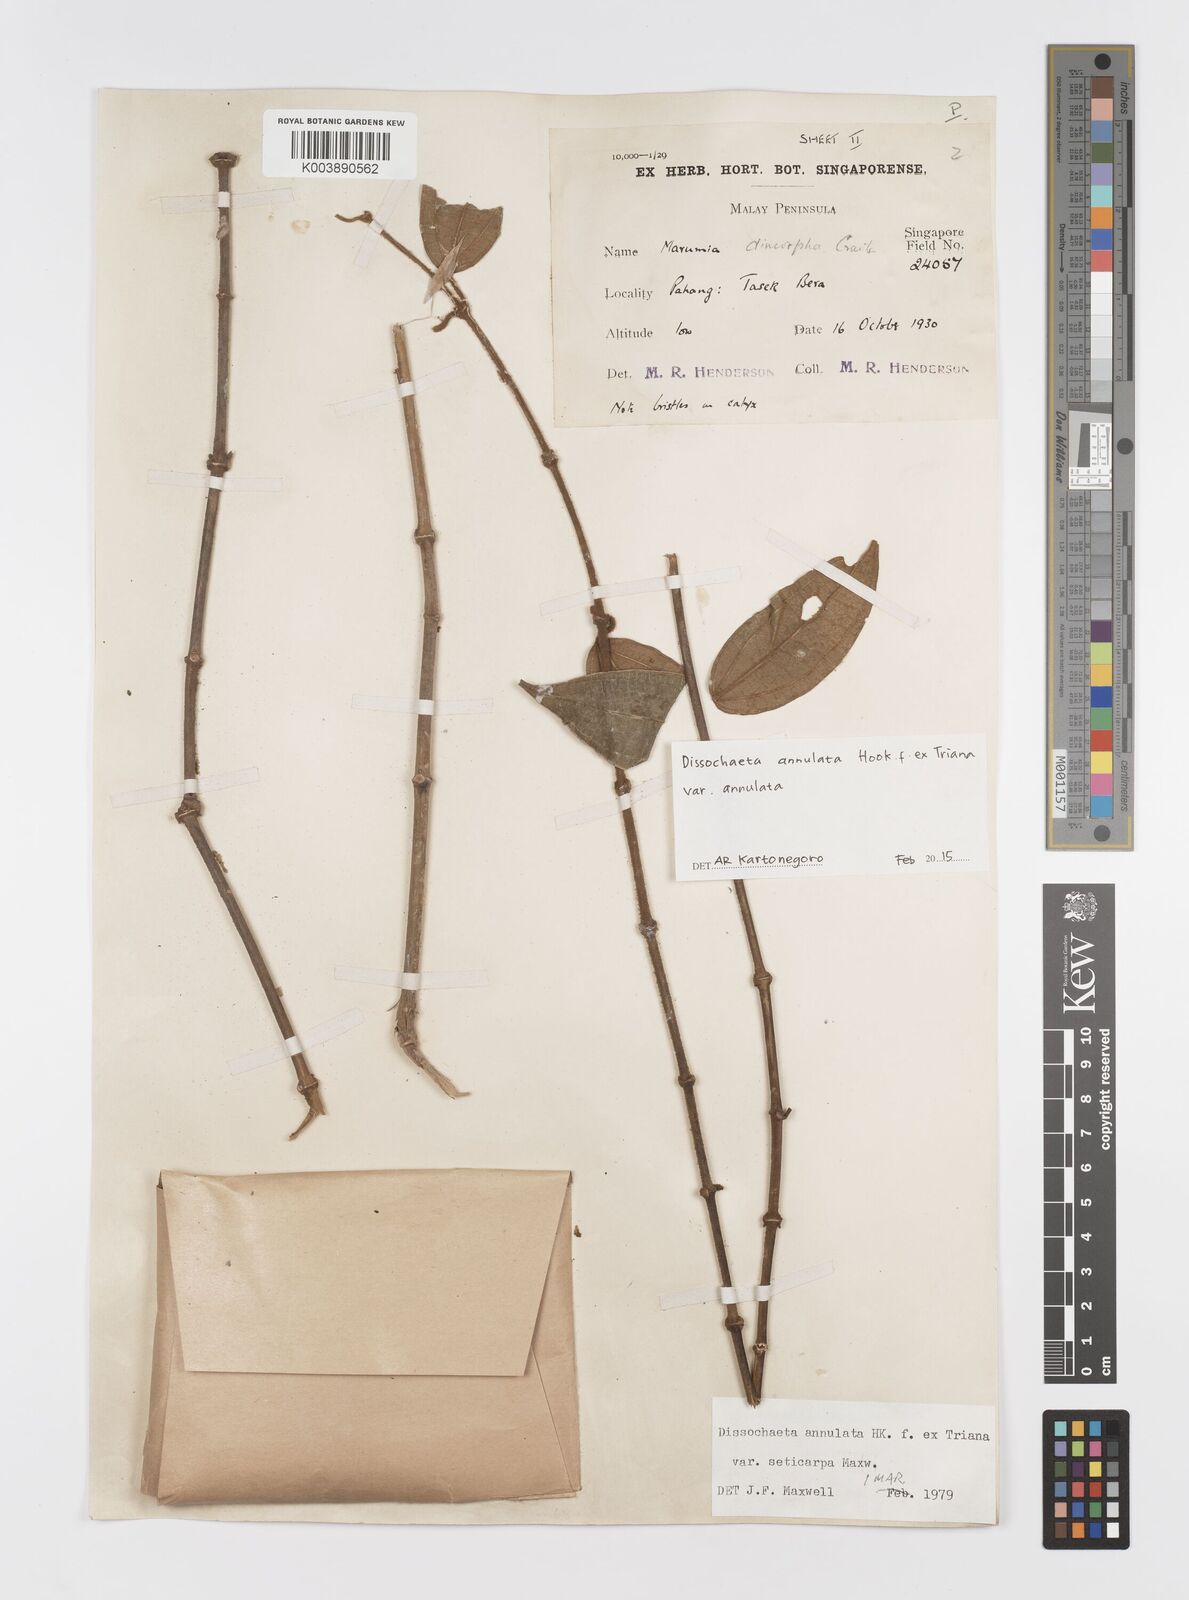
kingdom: Plantae
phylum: Tracheophyta
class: Magnoliopsida
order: Myrtales
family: Melastomataceae
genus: Dissochaeta
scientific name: Dissochaeta annulata
